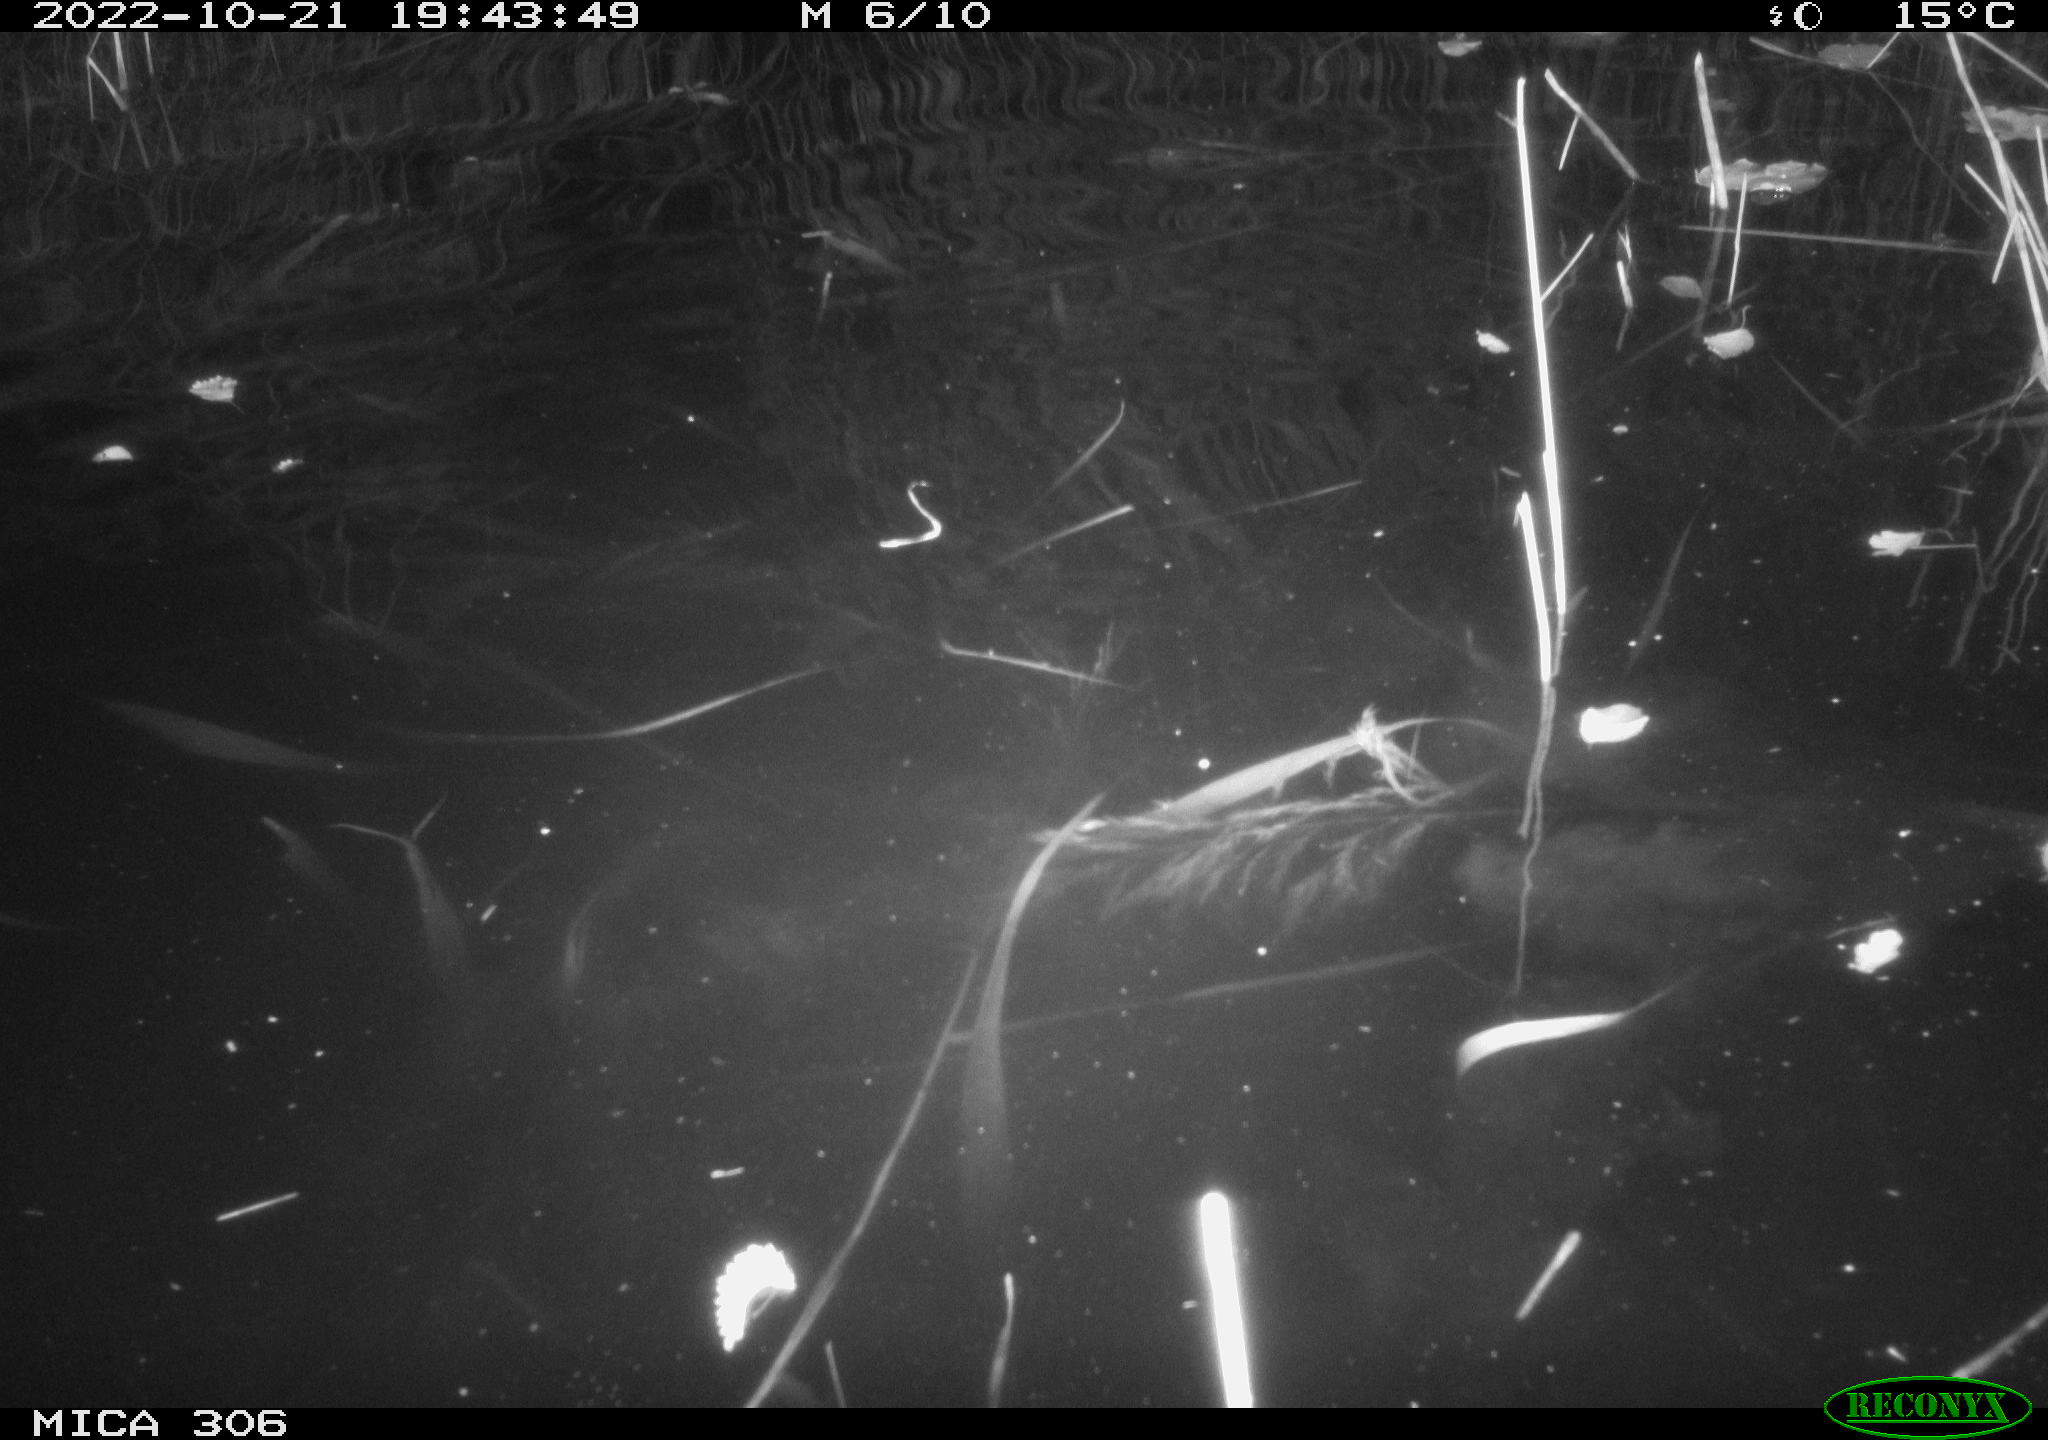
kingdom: Animalia
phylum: Chordata
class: Mammalia
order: Rodentia
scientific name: Rodentia
